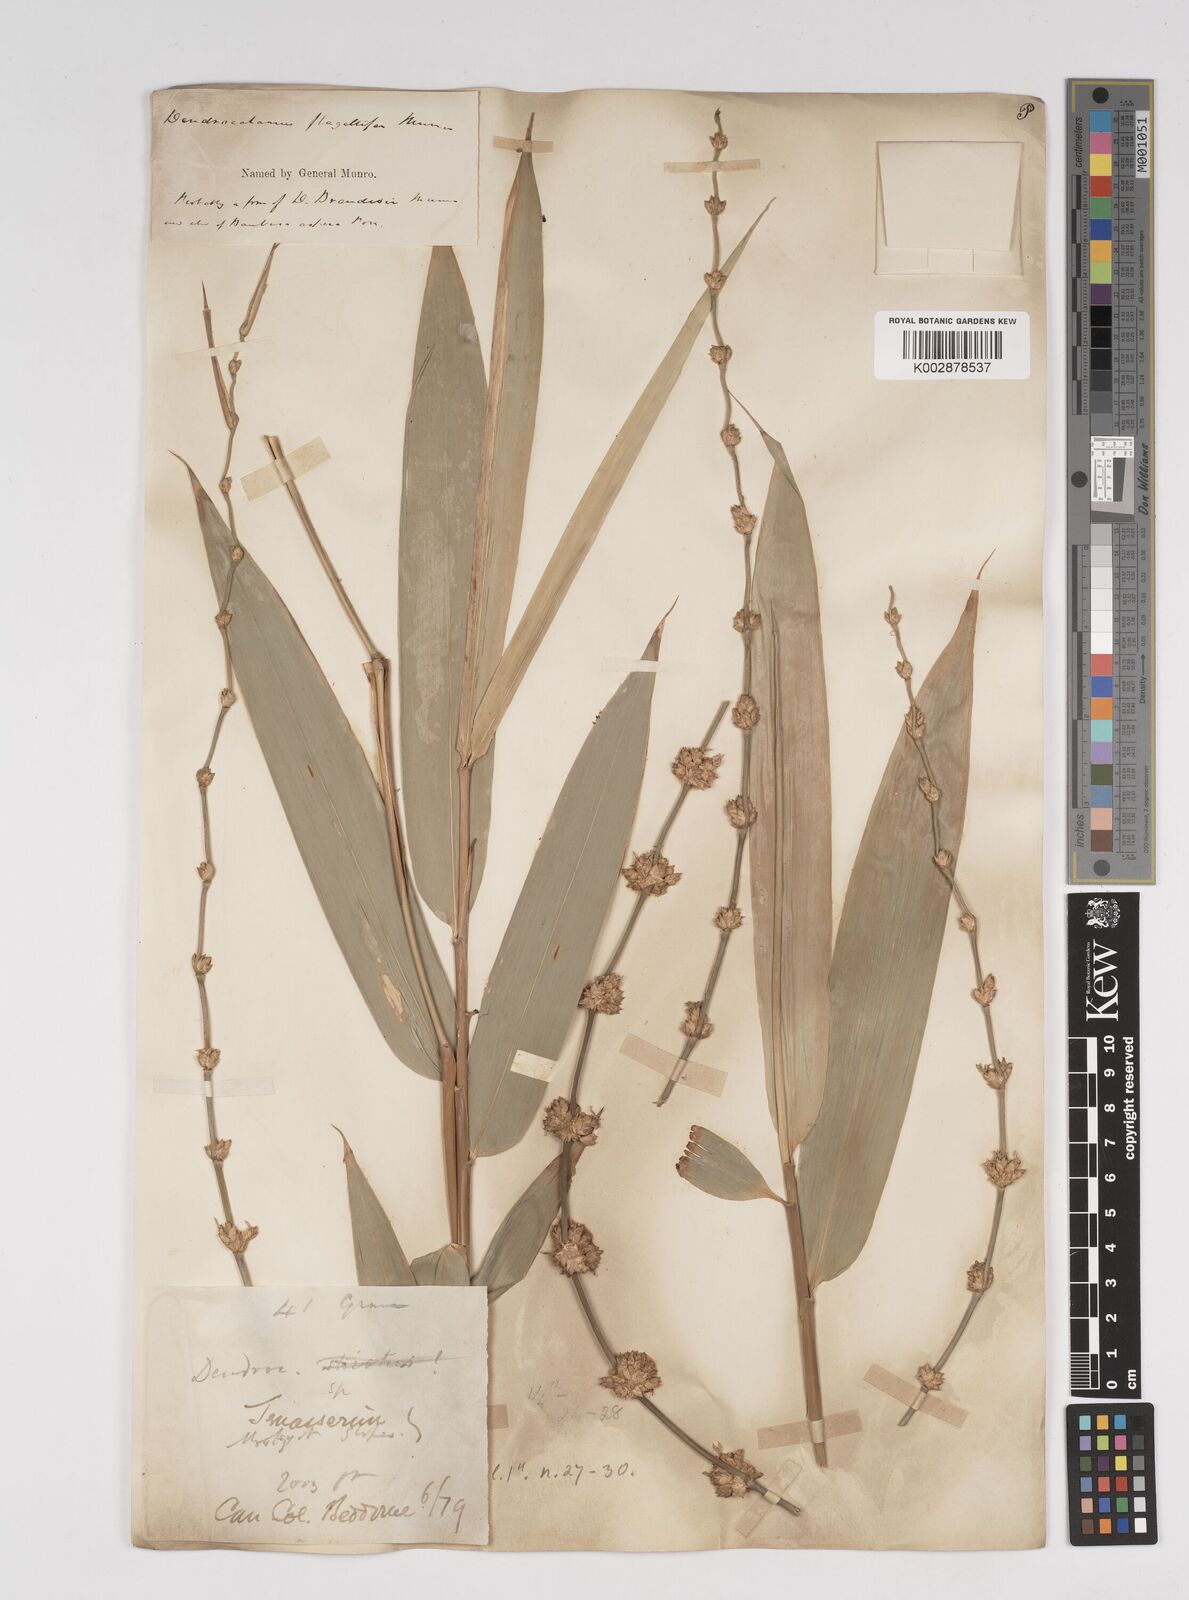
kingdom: Plantae
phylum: Tracheophyta
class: Liliopsida
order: Poales
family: Poaceae
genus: Dendrocalamus
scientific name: Dendrocalamus asper
